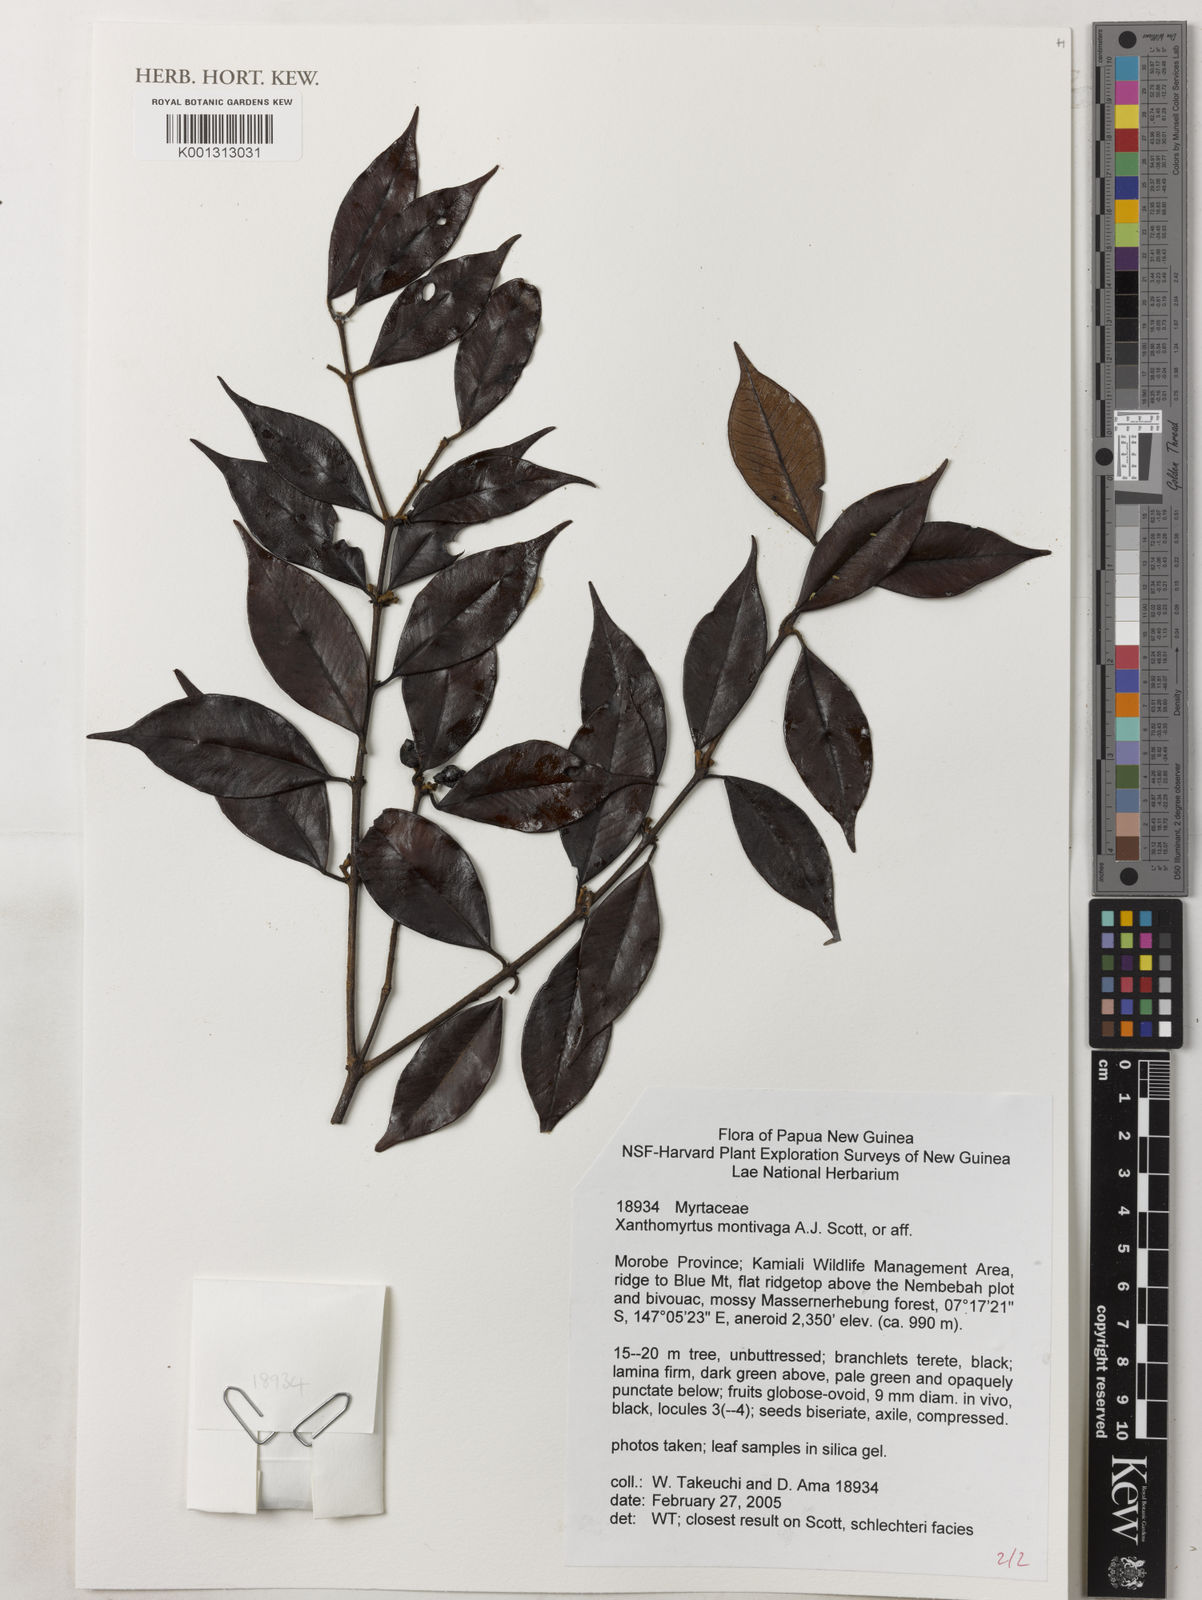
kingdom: Plantae
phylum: Tracheophyta
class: Magnoliopsida
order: Myrtales
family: Myrtaceae
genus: Xanthomyrtus
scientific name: Xanthomyrtus montivaga
